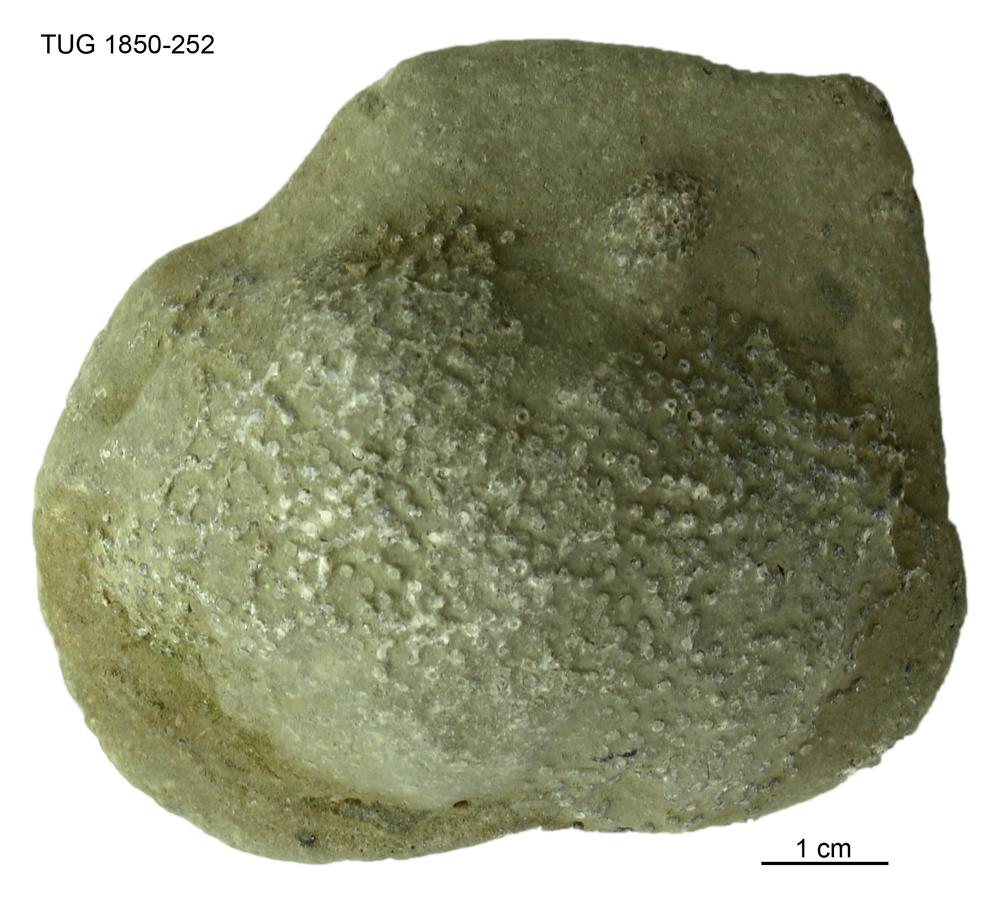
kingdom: Animalia
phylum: Cnidaria
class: Anthozoa
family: Syringoporidae
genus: Syringopora
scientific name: Syringopora
